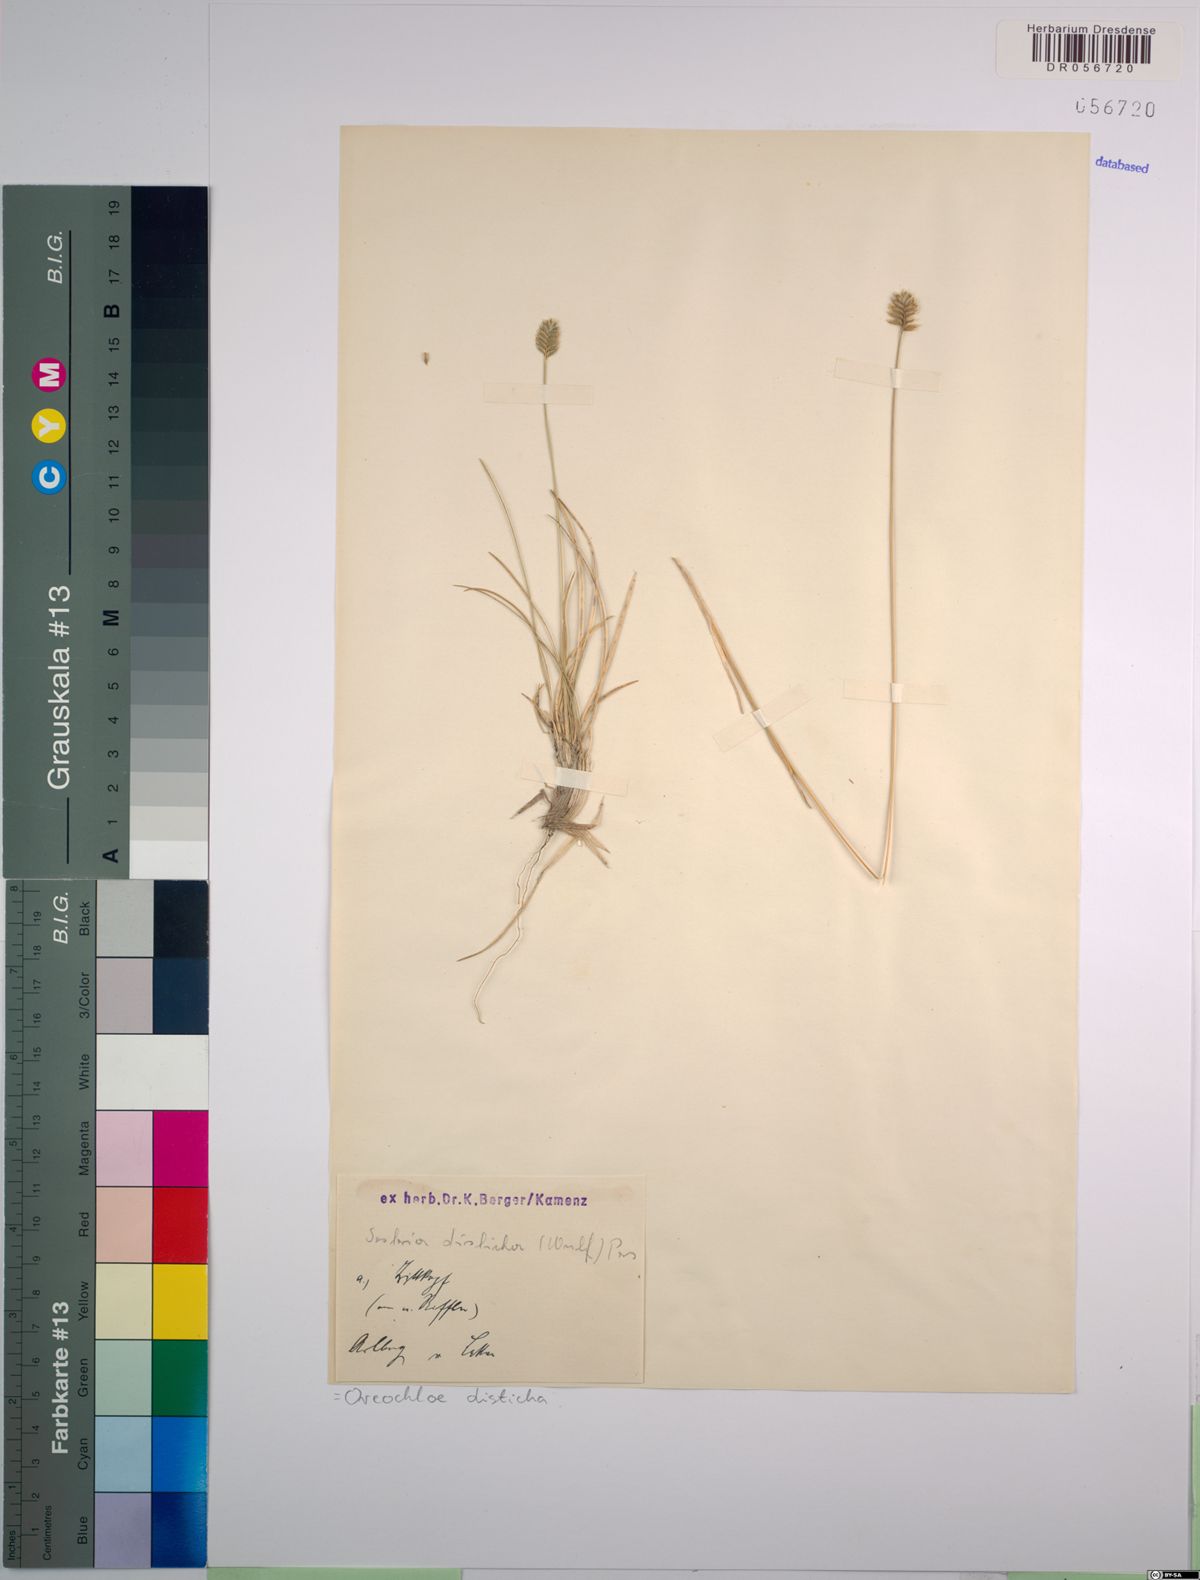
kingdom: Plantae
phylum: Tracheophyta
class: Liliopsida
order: Poales
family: Poaceae
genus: Oreochloa
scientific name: Oreochloa disticha
